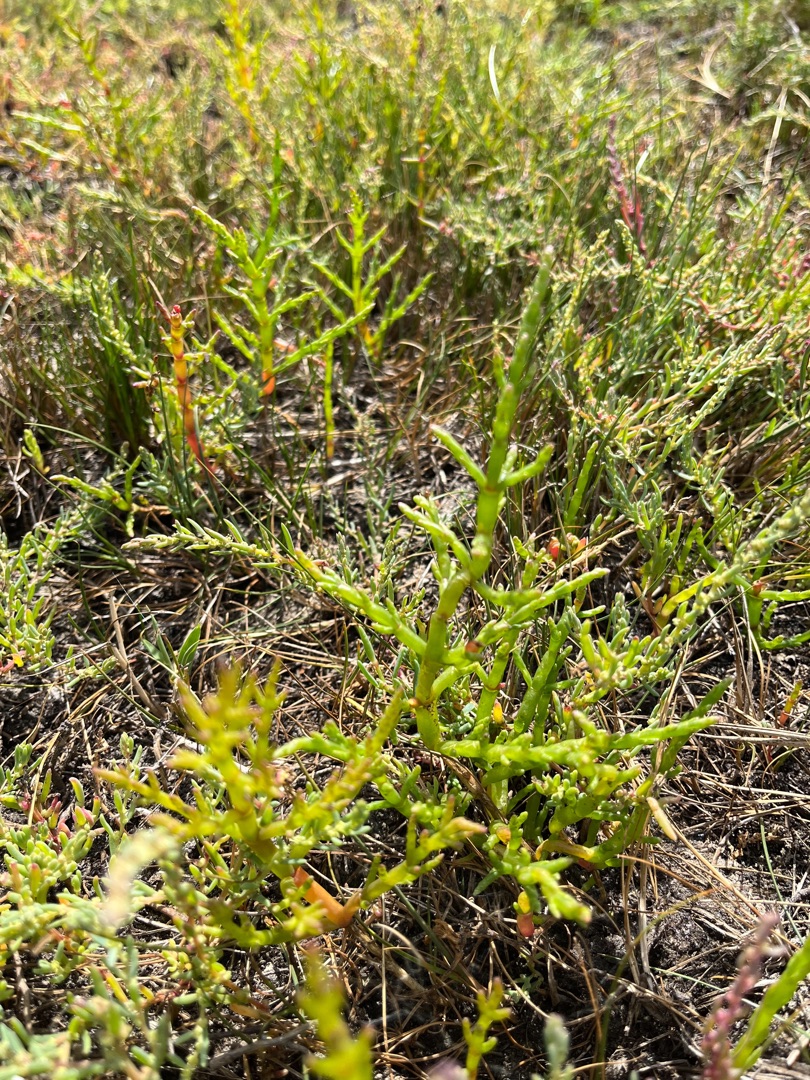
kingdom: Plantae
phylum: Tracheophyta
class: Magnoliopsida
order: Caryophyllales
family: Amaranthaceae
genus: Salicornia
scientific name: Salicornia europaea
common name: Almindelig salturt
